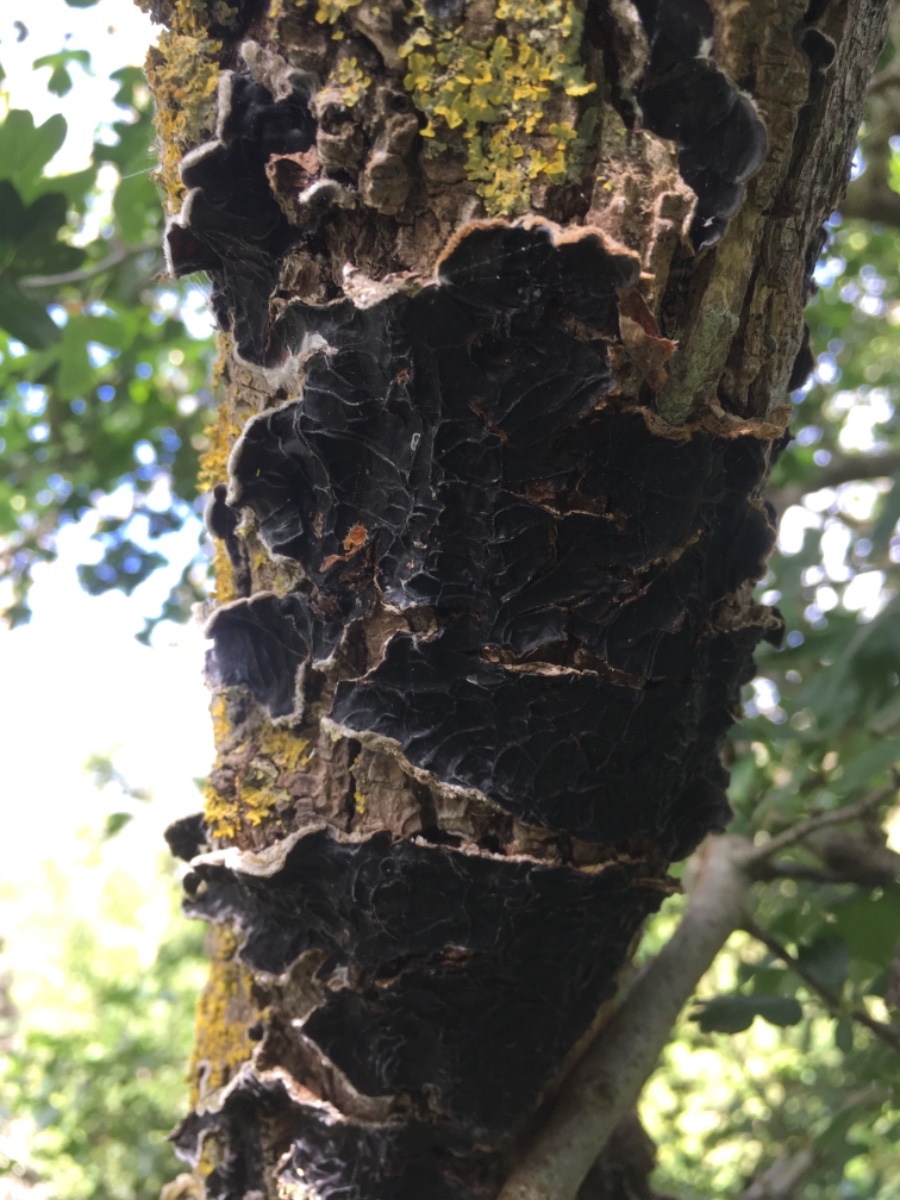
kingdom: Fungi
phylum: Basidiomycota
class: Agaricomycetes
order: Auriculariales
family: Auriculariaceae
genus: Auricularia
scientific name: Auricularia mesenterica
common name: håret judasøre
